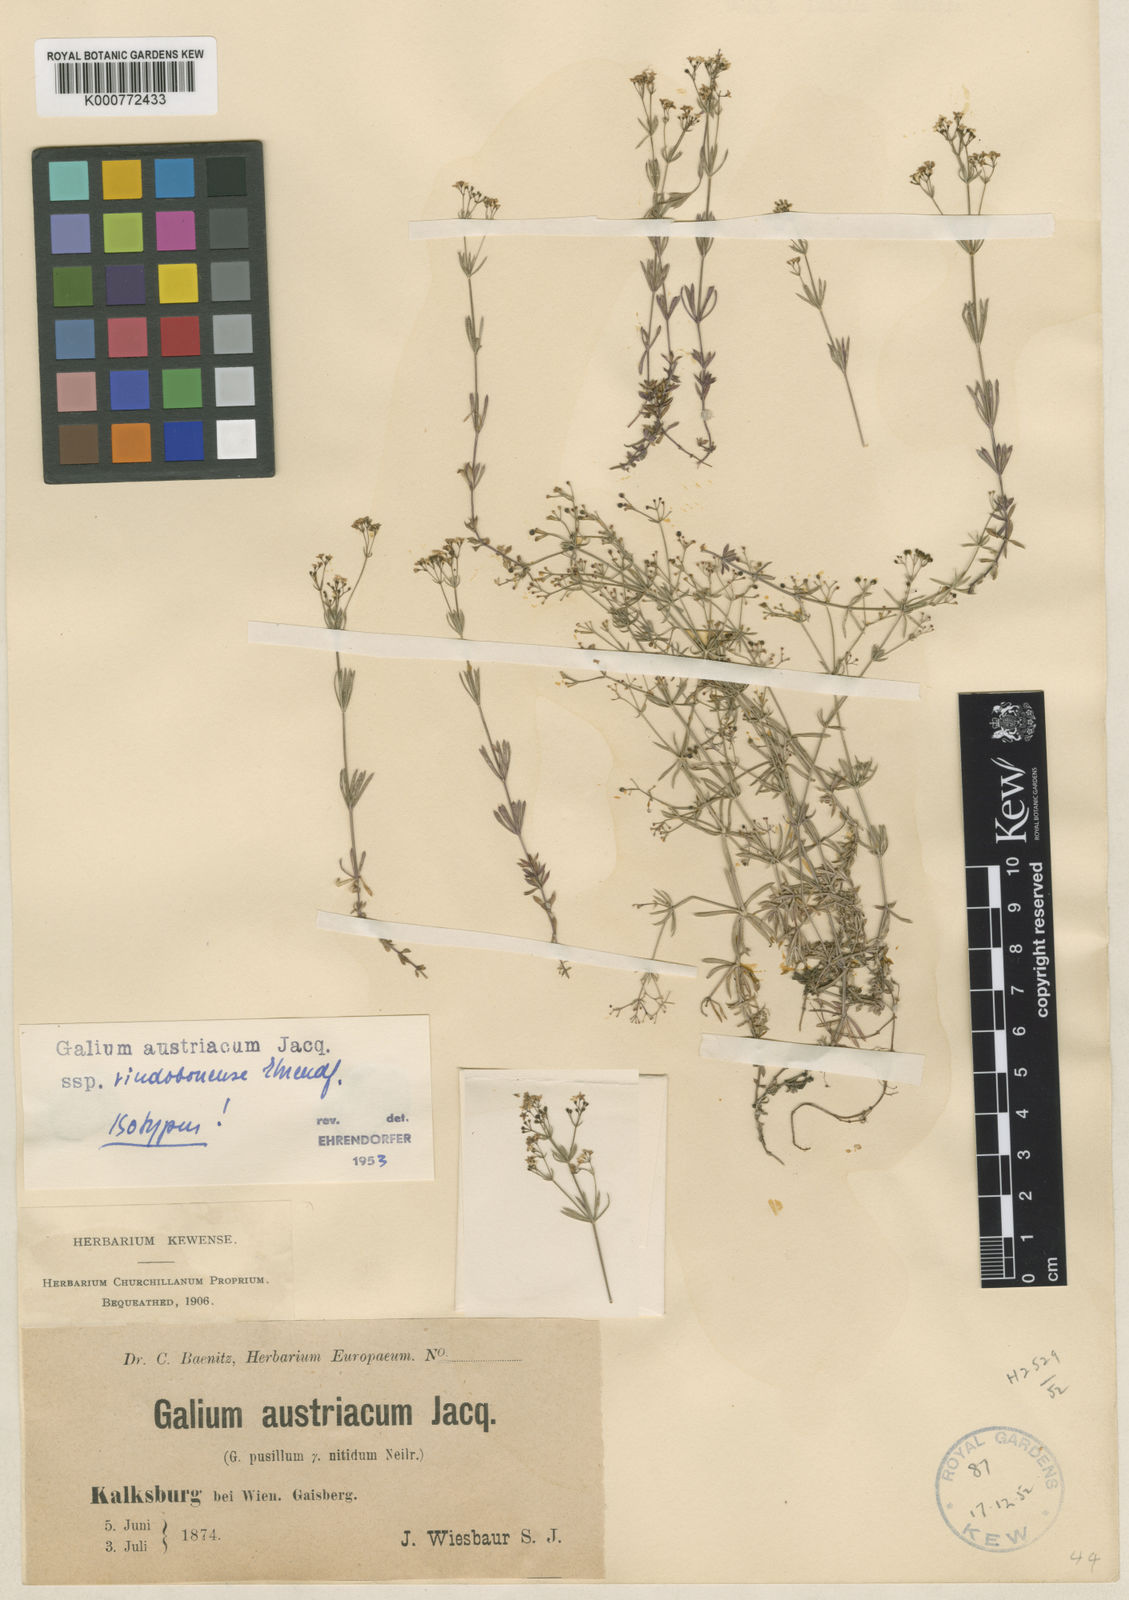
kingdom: Plantae
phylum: Tracheophyta
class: Magnoliopsida
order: Gentianales
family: Rubiaceae
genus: Galium
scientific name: Galium austriacum
